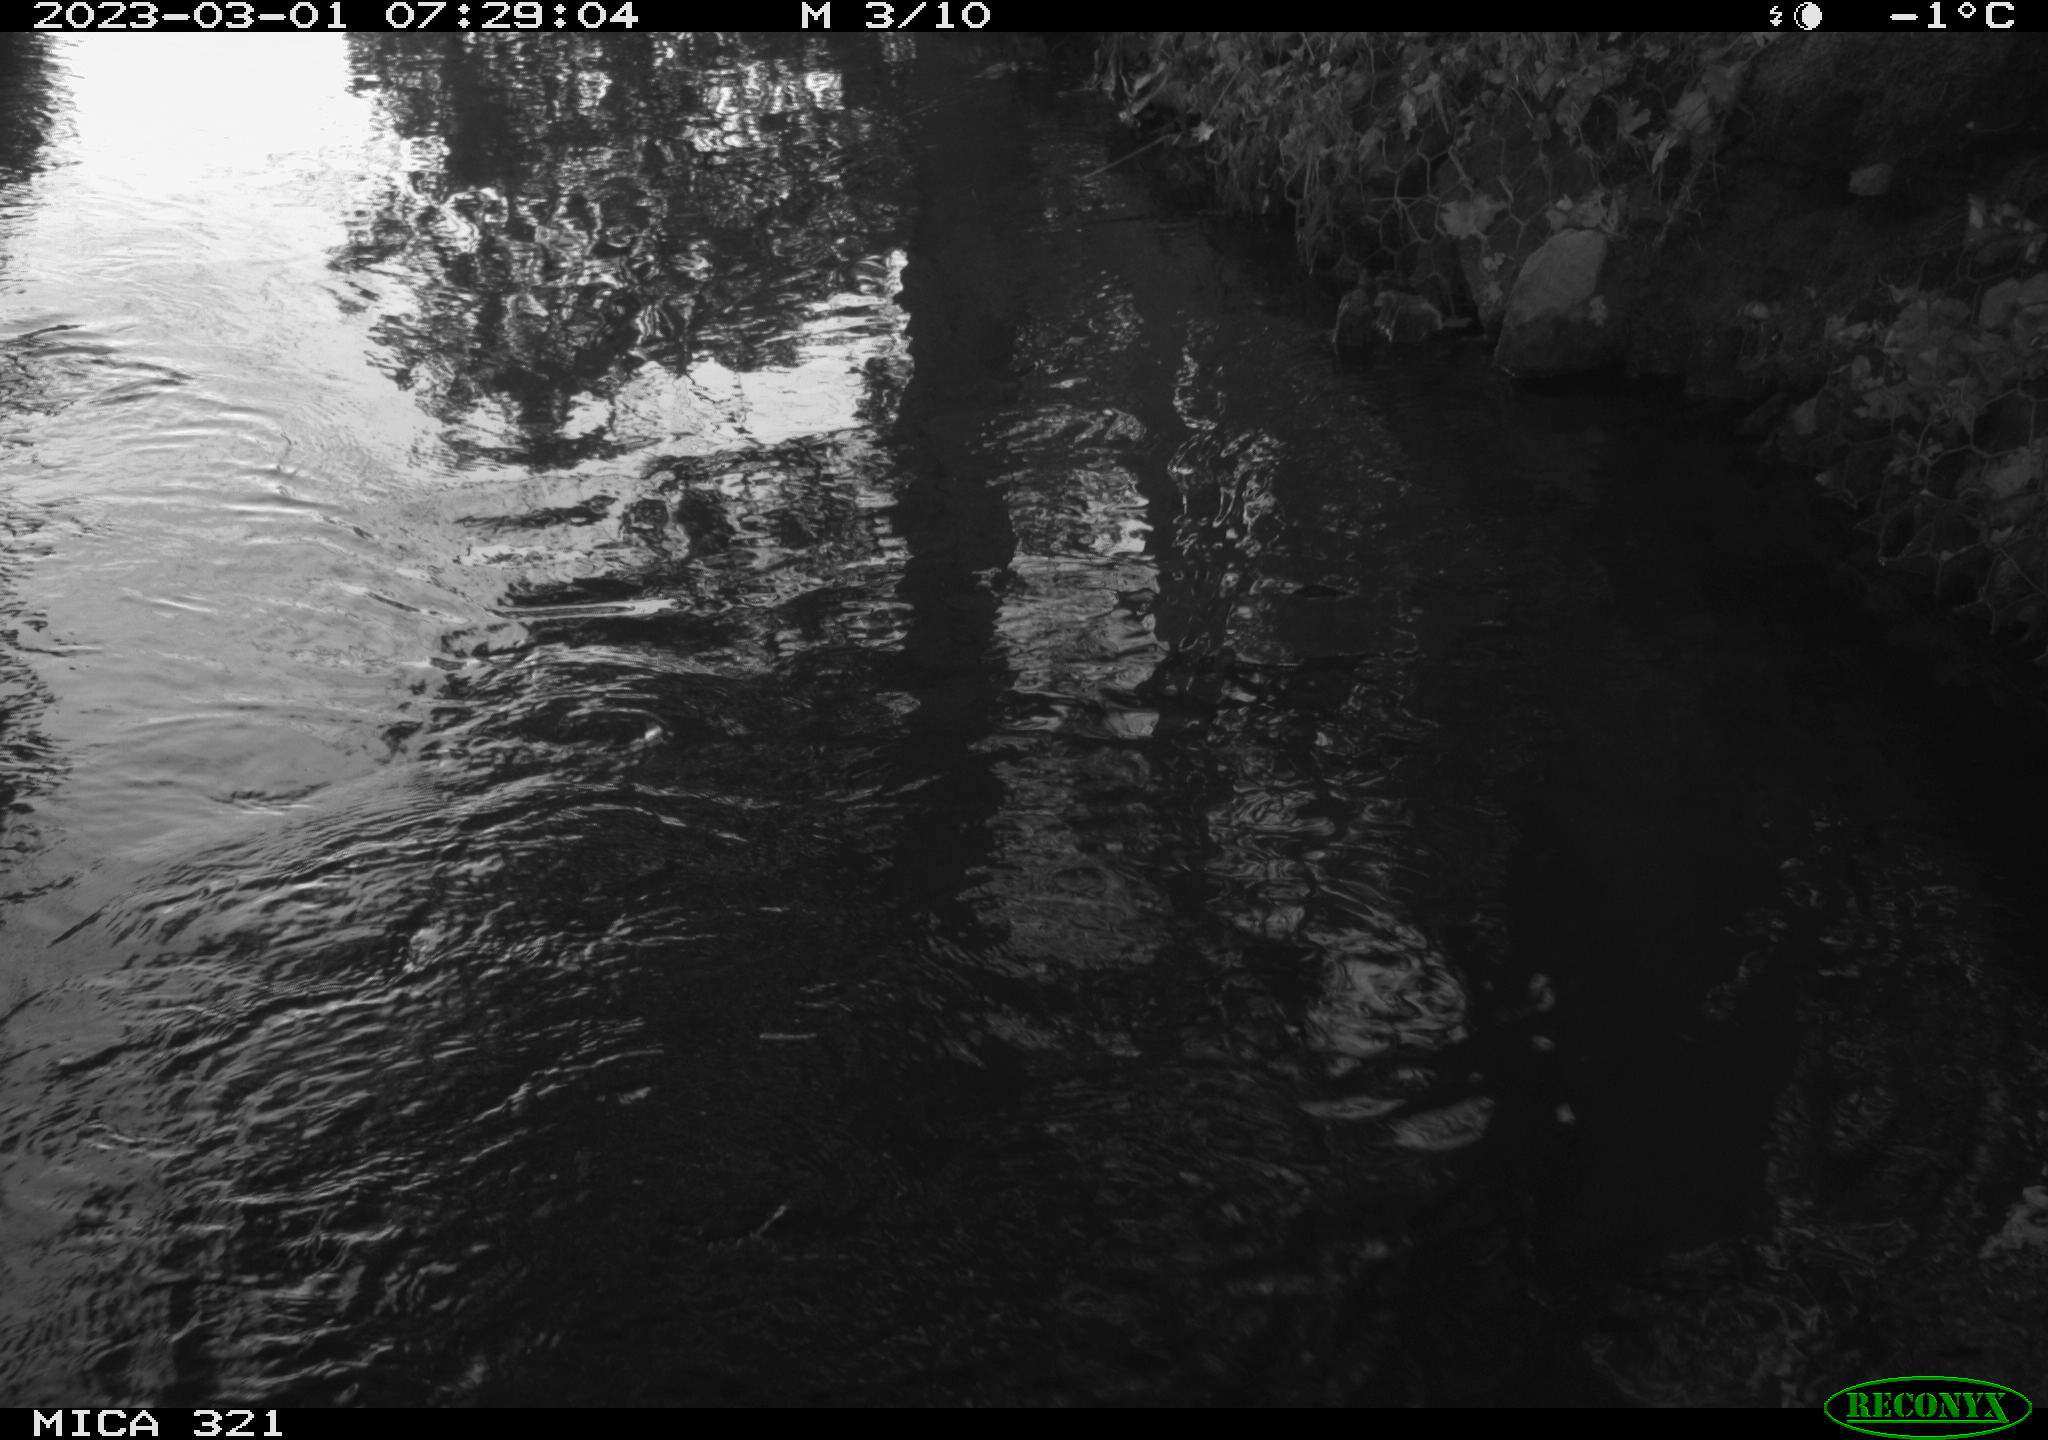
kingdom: Animalia
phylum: Chordata
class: Aves
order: Anseriformes
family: Anatidae
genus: Anas
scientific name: Anas
